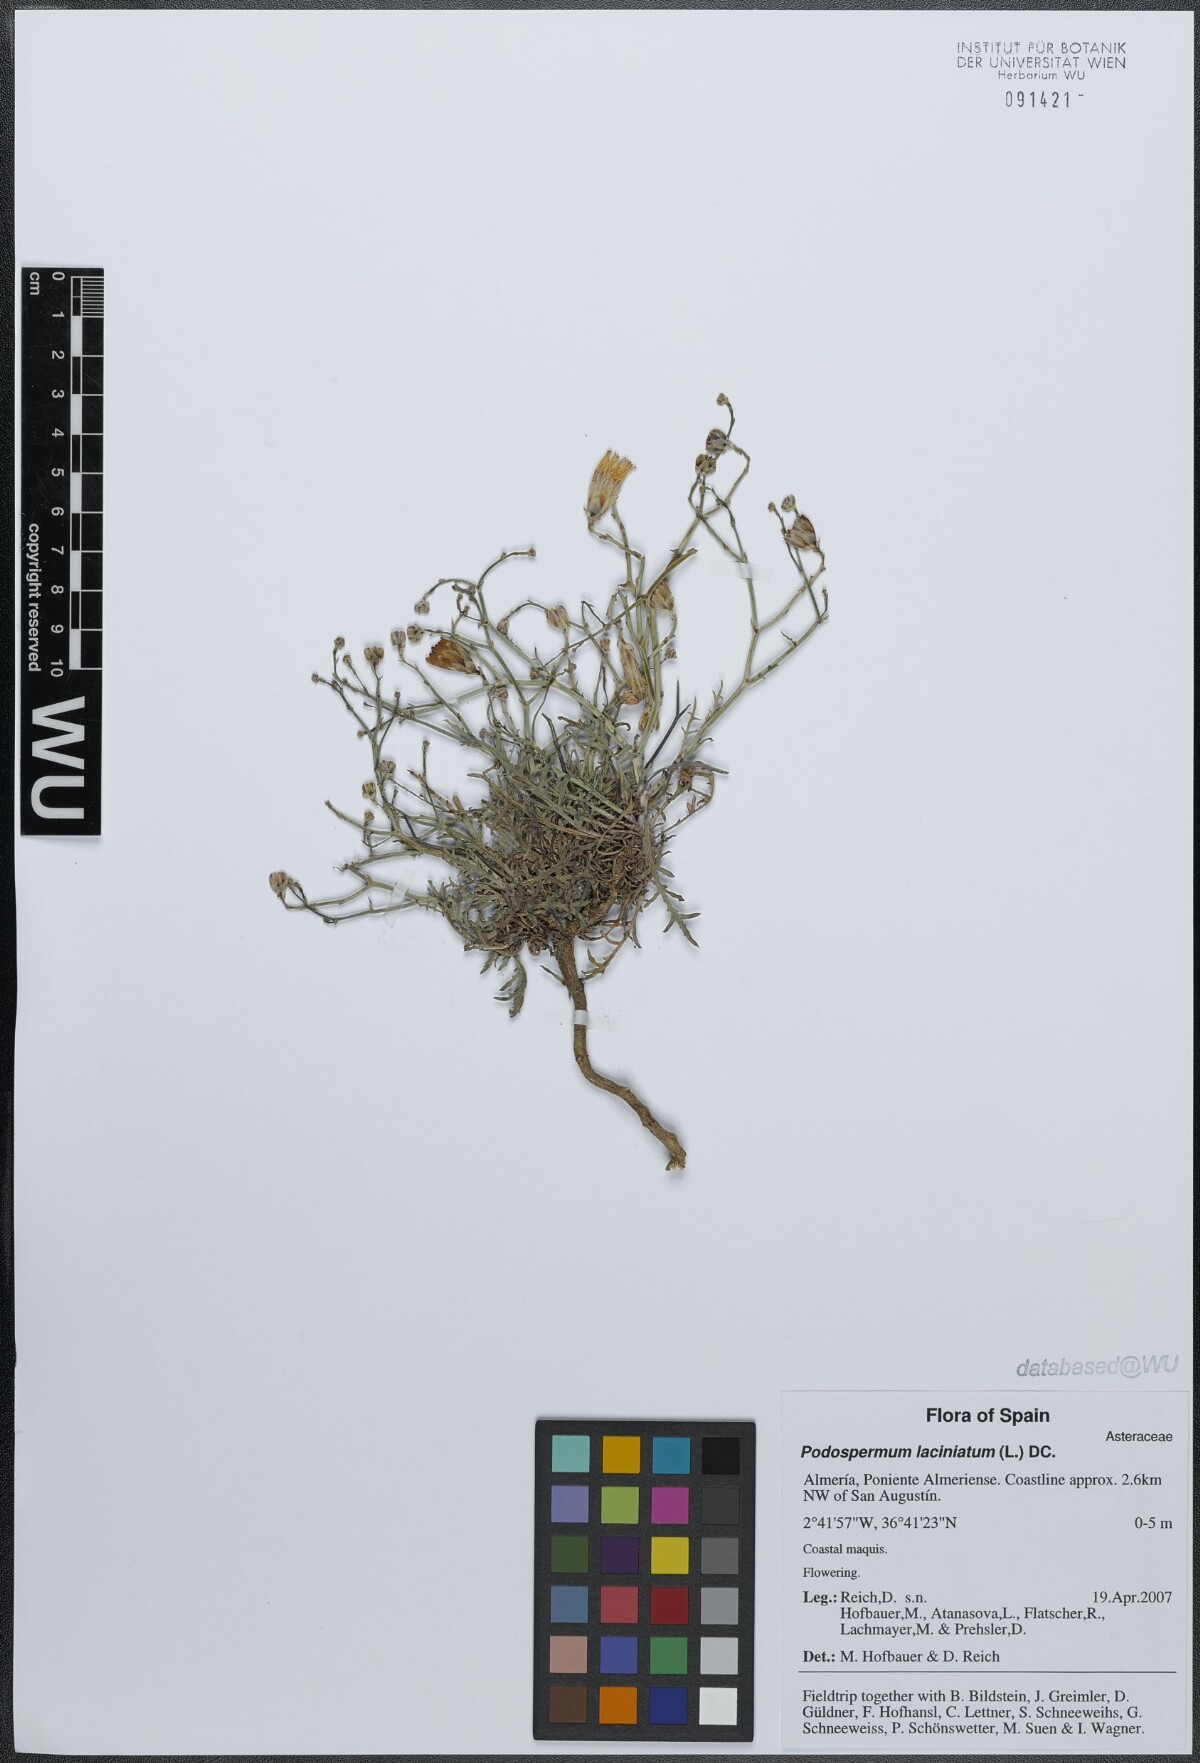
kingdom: Plantae
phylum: Tracheophyta
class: Magnoliopsida
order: Asterales
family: Asteraceae
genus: Scorzonera
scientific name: Scorzonera laciniata
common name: Cutleaf vipergrass
